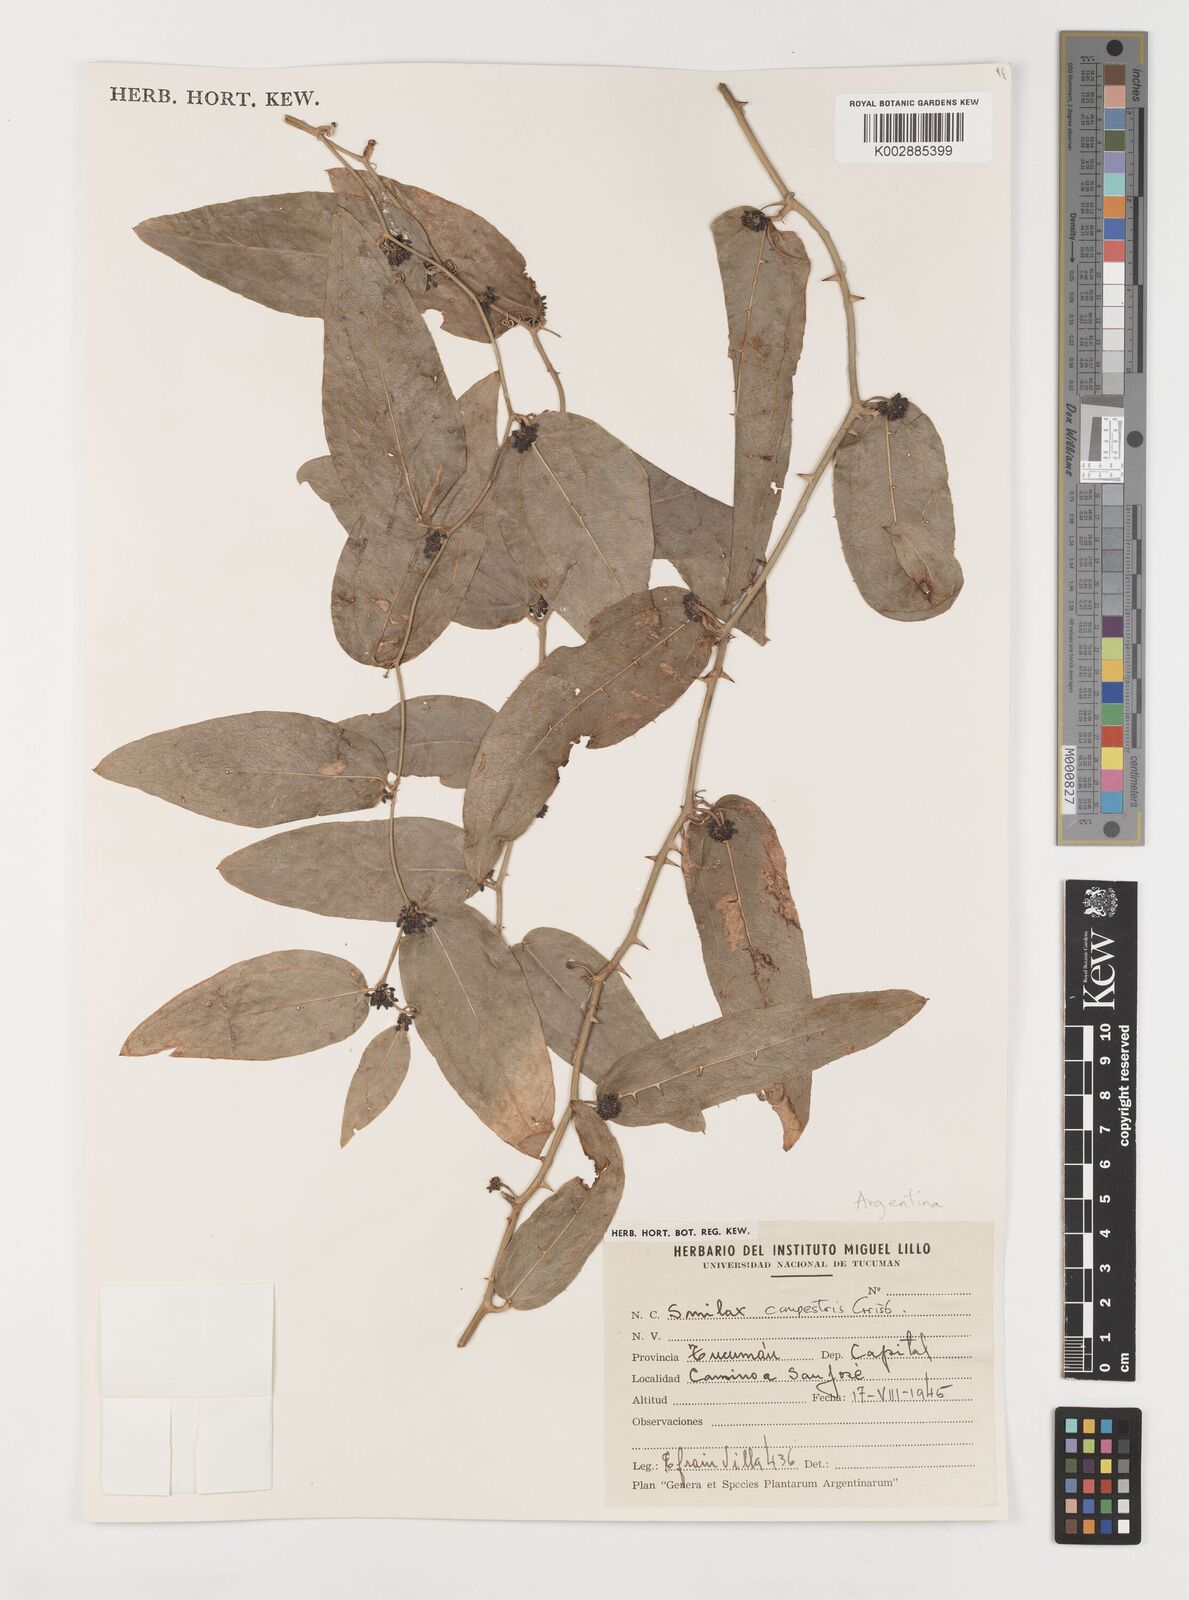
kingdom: Plantae
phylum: Tracheophyta
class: Liliopsida
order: Liliales
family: Smilacaceae
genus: Smilax
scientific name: Smilax campestris
